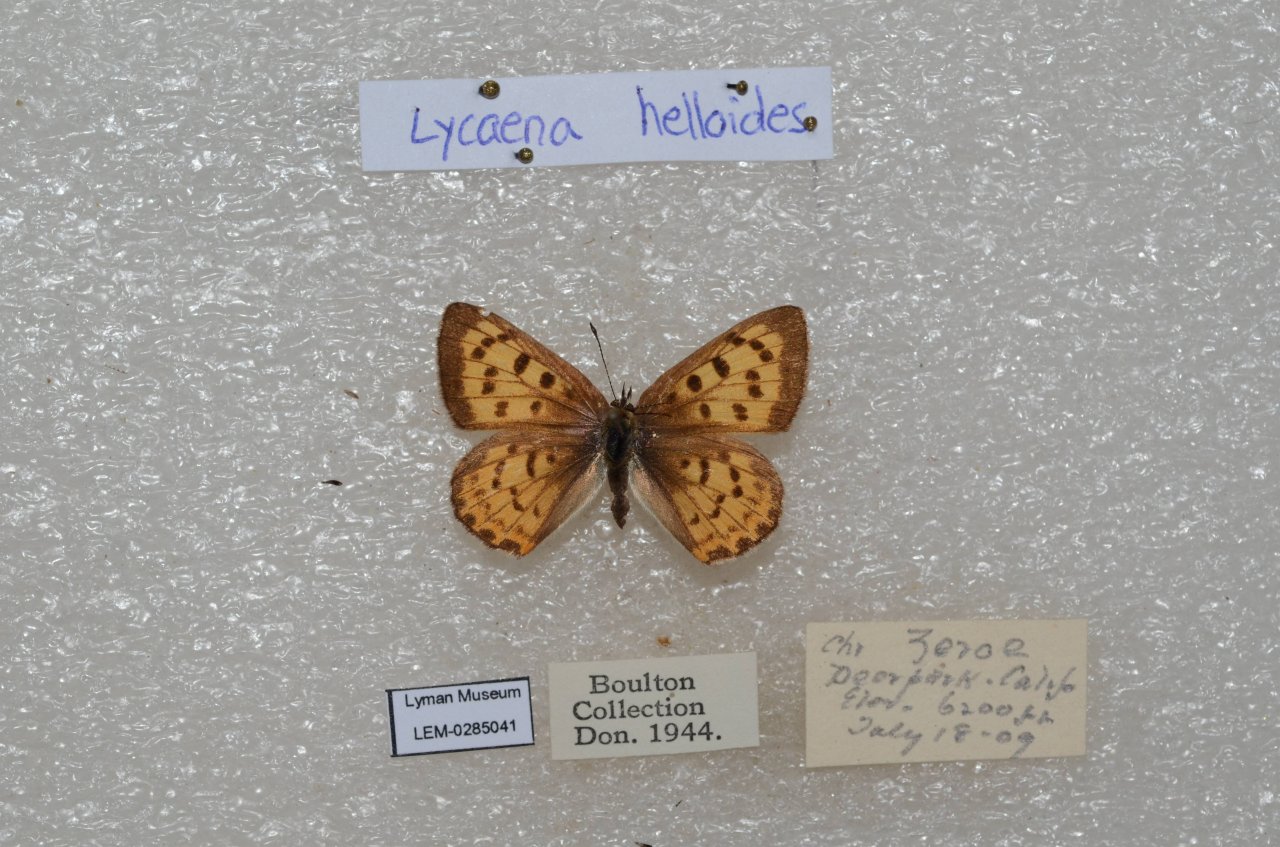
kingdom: Animalia
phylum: Arthropoda
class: Insecta
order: Lepidoptera
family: Sesiidae
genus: Sesia
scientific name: Sesia Lycaena helloides
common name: Purplish Copper
